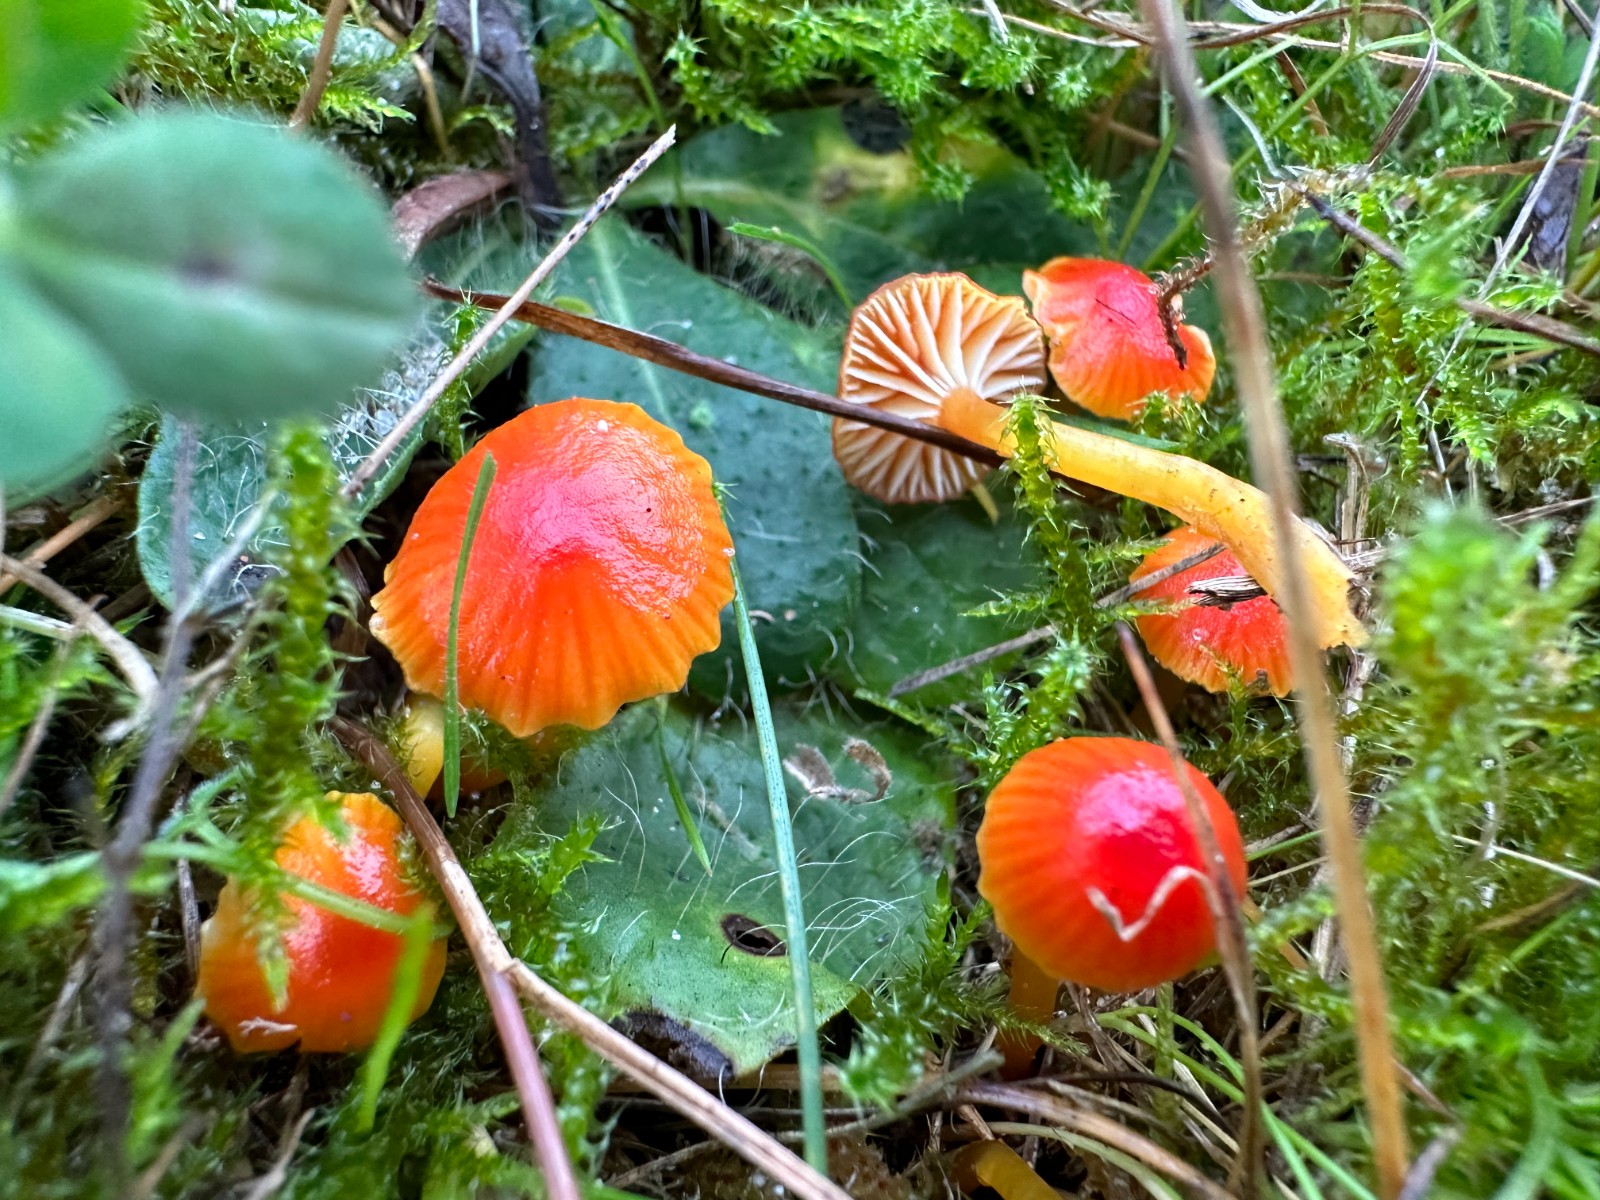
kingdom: Fungi
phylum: Basidiomycota
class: Agaricomycetes
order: Agaricales
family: Hygrophoraceae
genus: Hygrocybe
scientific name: Hygrocybe insipida
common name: liden vokshat
